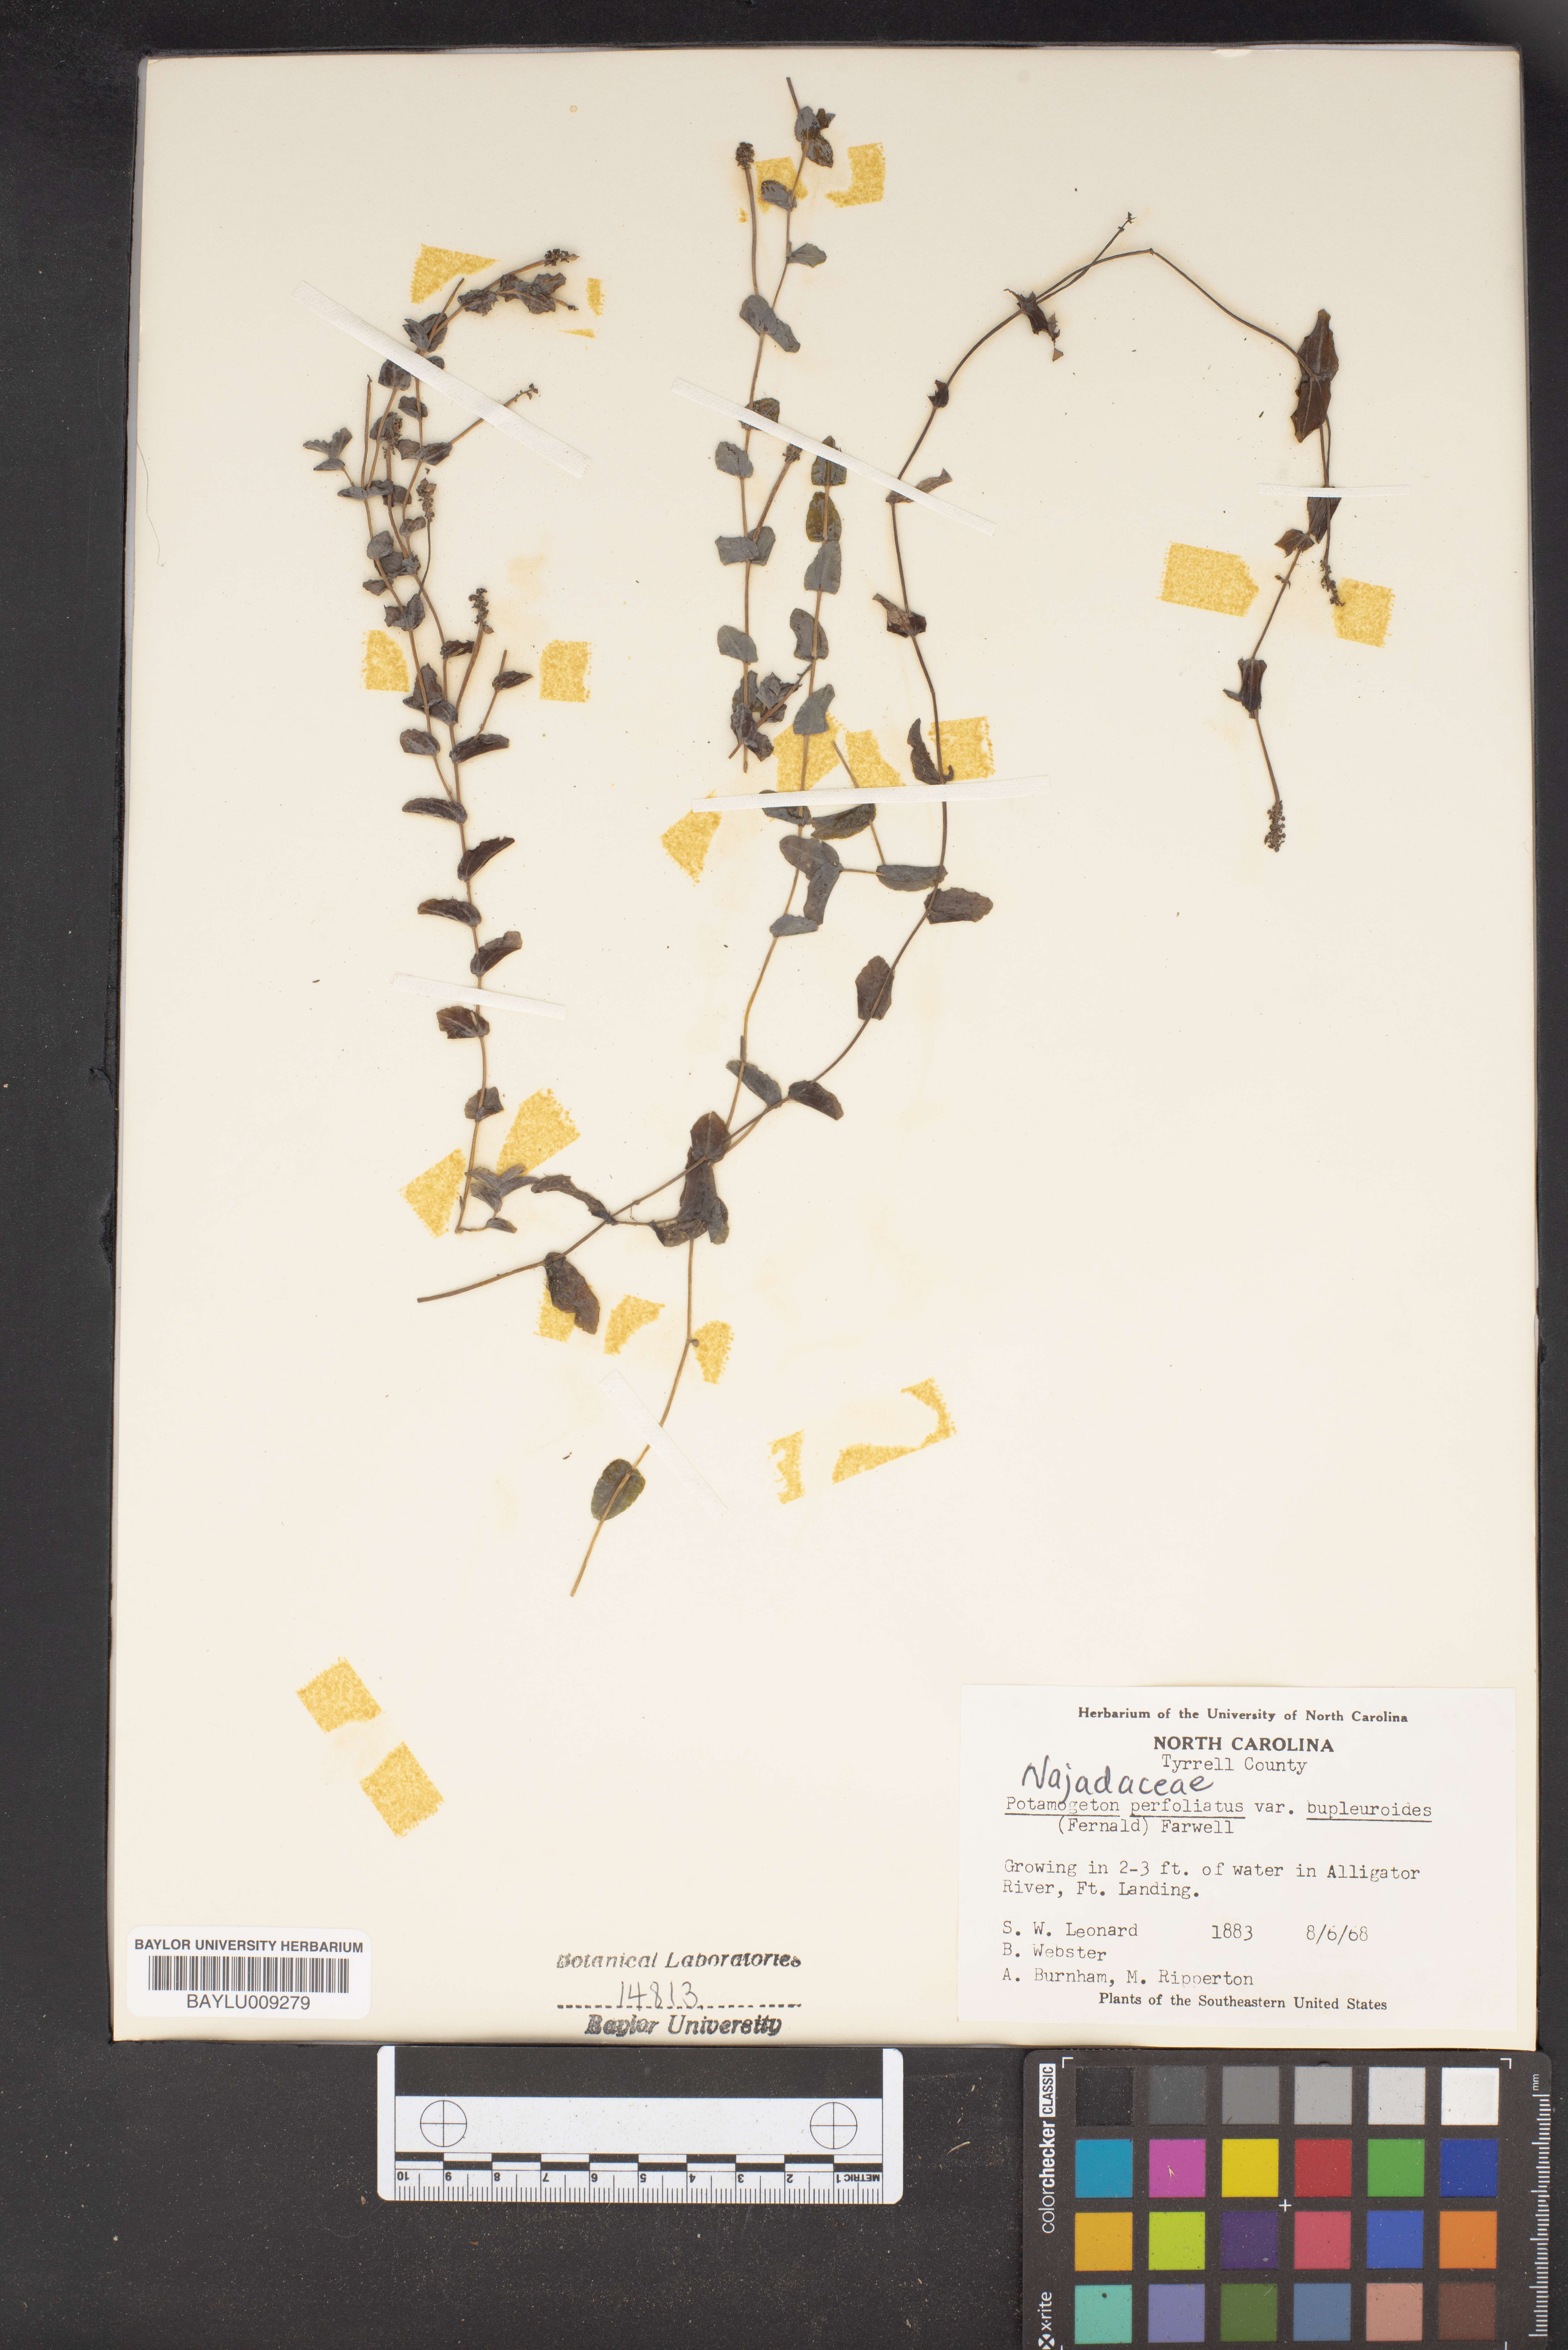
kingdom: Plantae
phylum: Tracheophyta
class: Liliopsida
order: Alismatales
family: Potamogetonaceae
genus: Potamogeton
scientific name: Potamogeton perfoliatus
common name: Perfoliate pondweed
